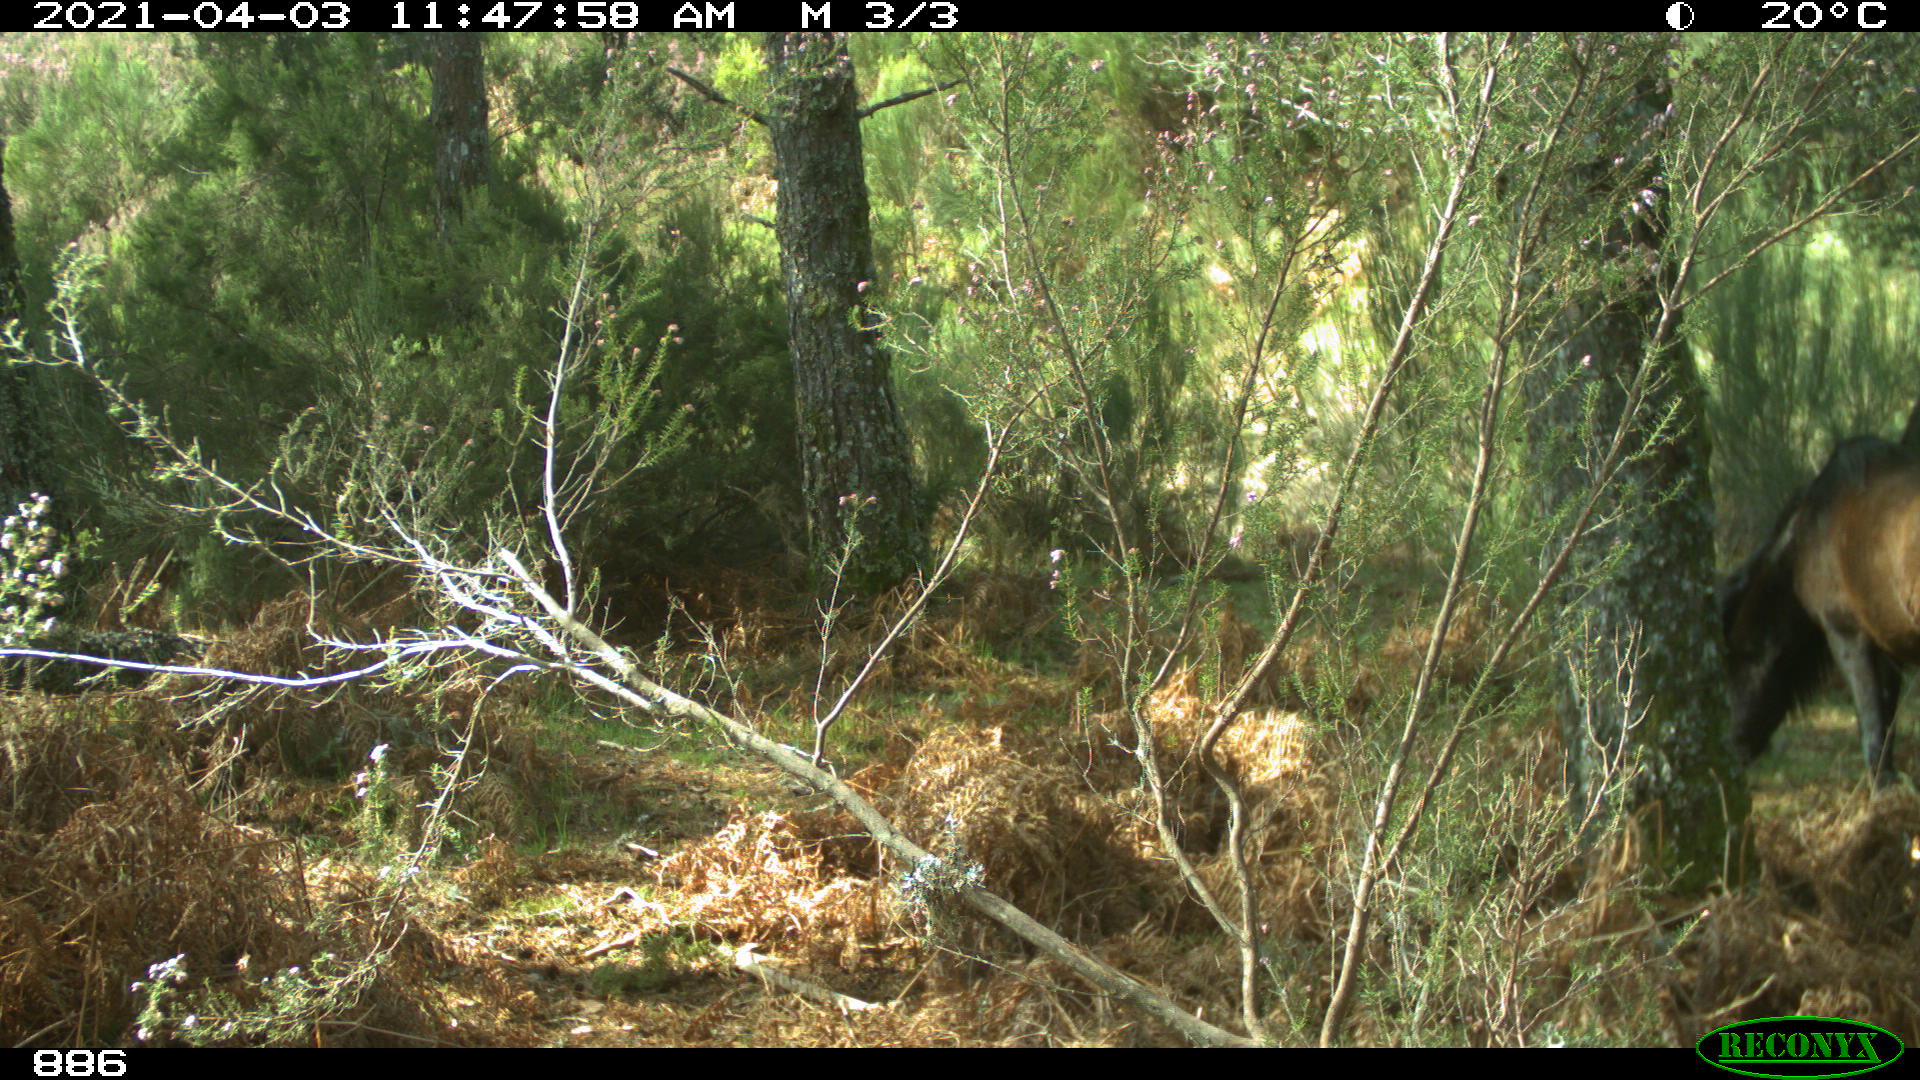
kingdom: Animalia
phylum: Chordata
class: Mammalia
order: Perissodactyla
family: Equidae
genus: Equus
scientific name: Equus caballus
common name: Horse
